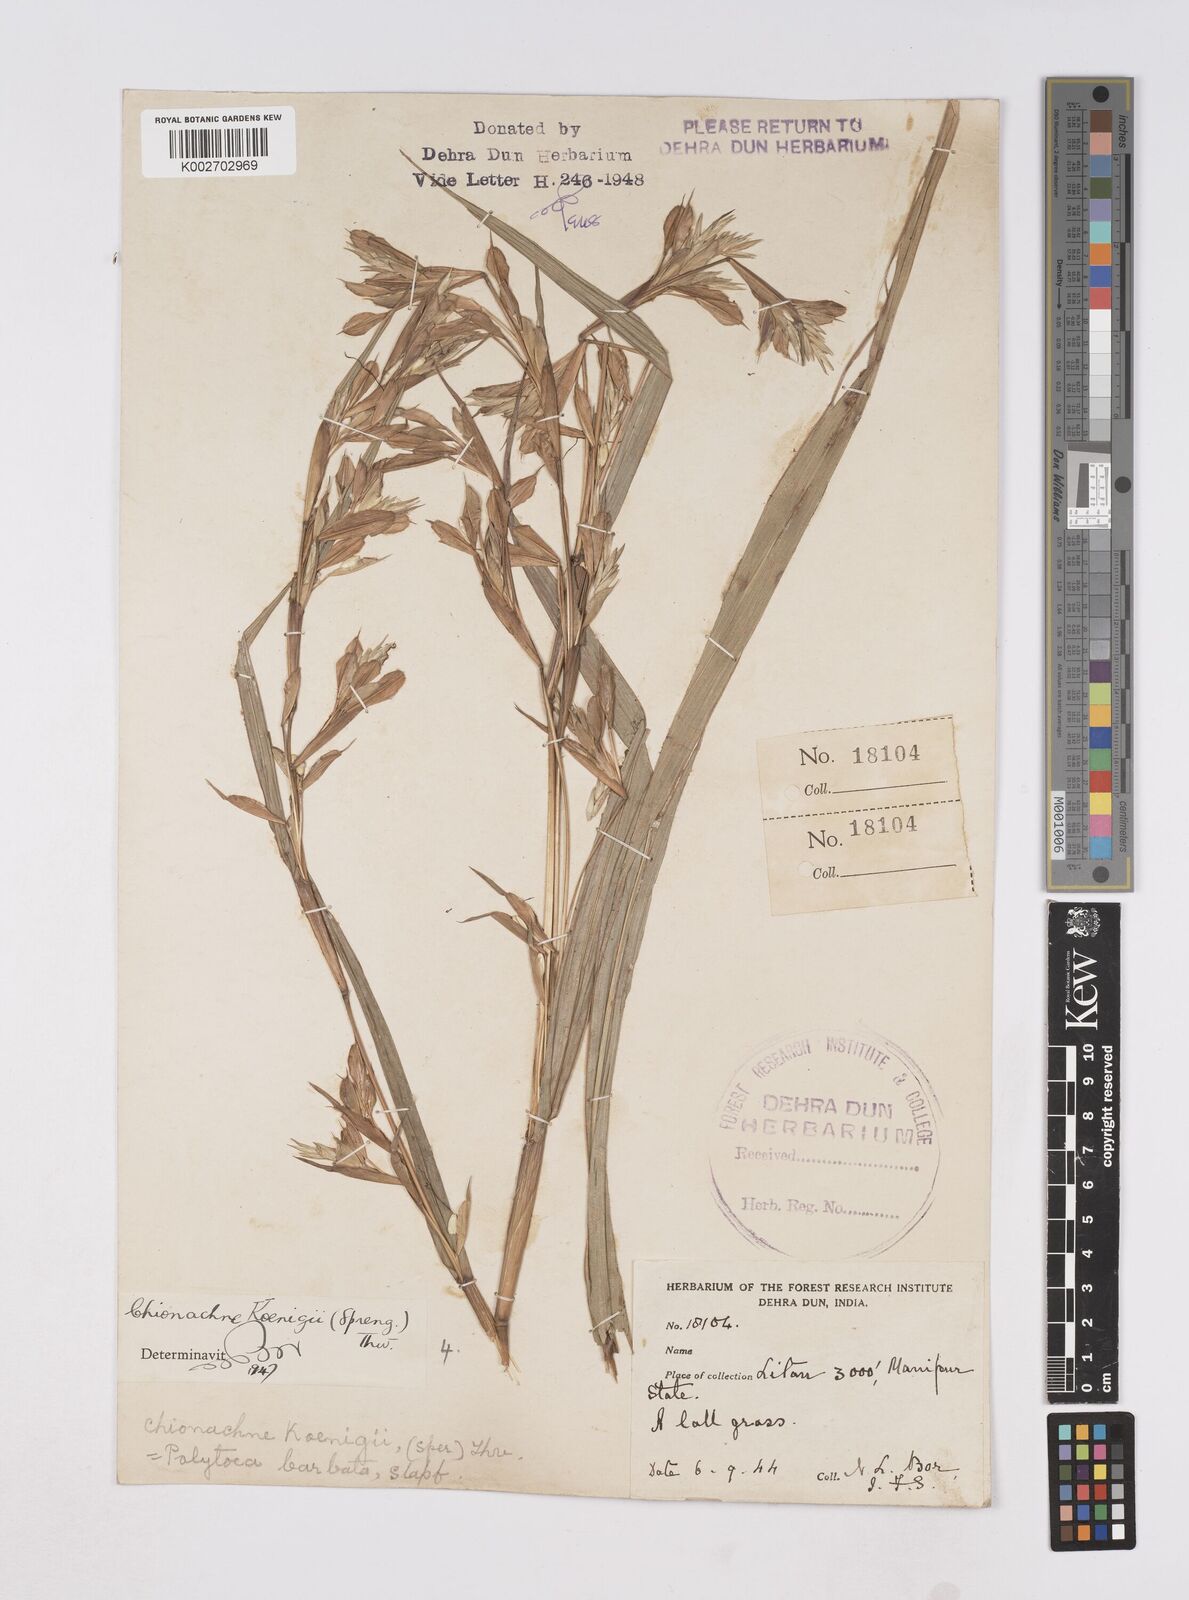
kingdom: Plantae
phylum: Tracheophyta
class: Liliopsida
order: Poales
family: Poaceae
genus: Polytoca
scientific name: Polytoca gigantea
